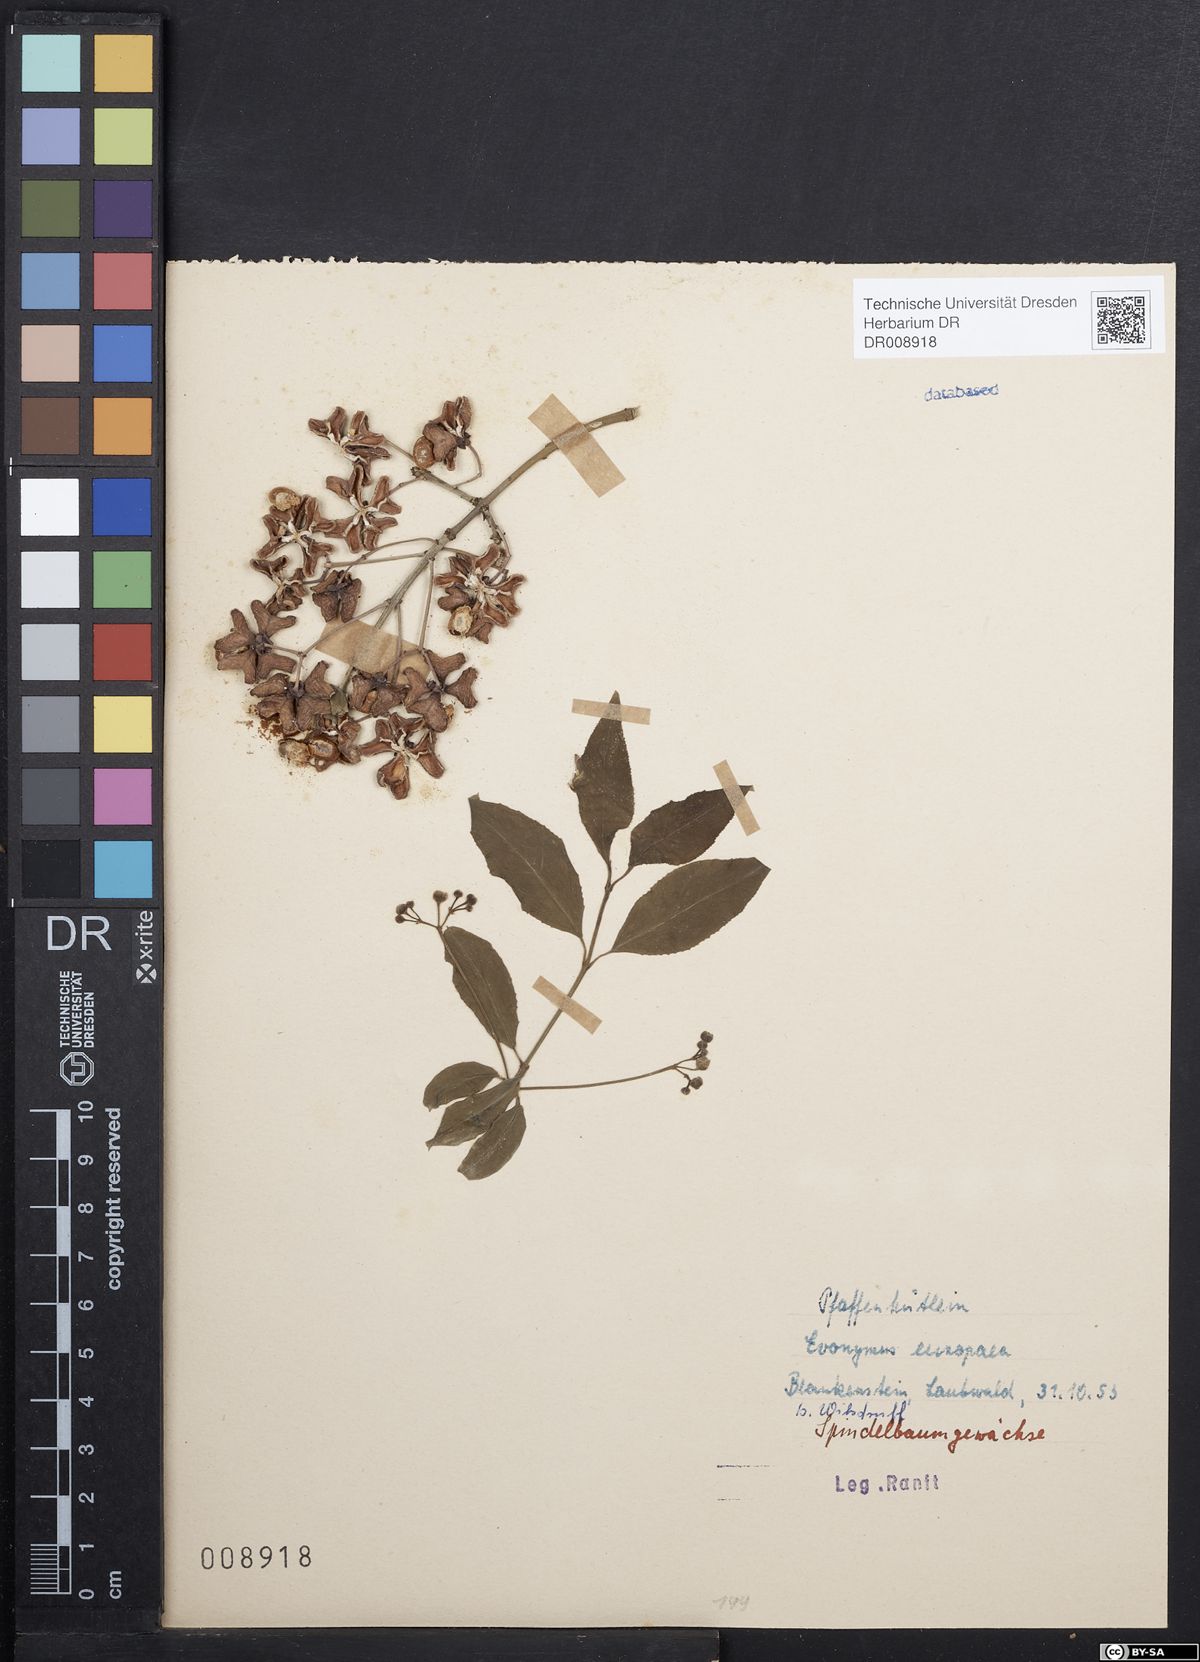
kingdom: Plantae
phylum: Tracheophyta
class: Magnoliopsida
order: Celastrales
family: Celastraceae
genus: Euonymus
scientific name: Euonymus europaeus
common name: Spindle
